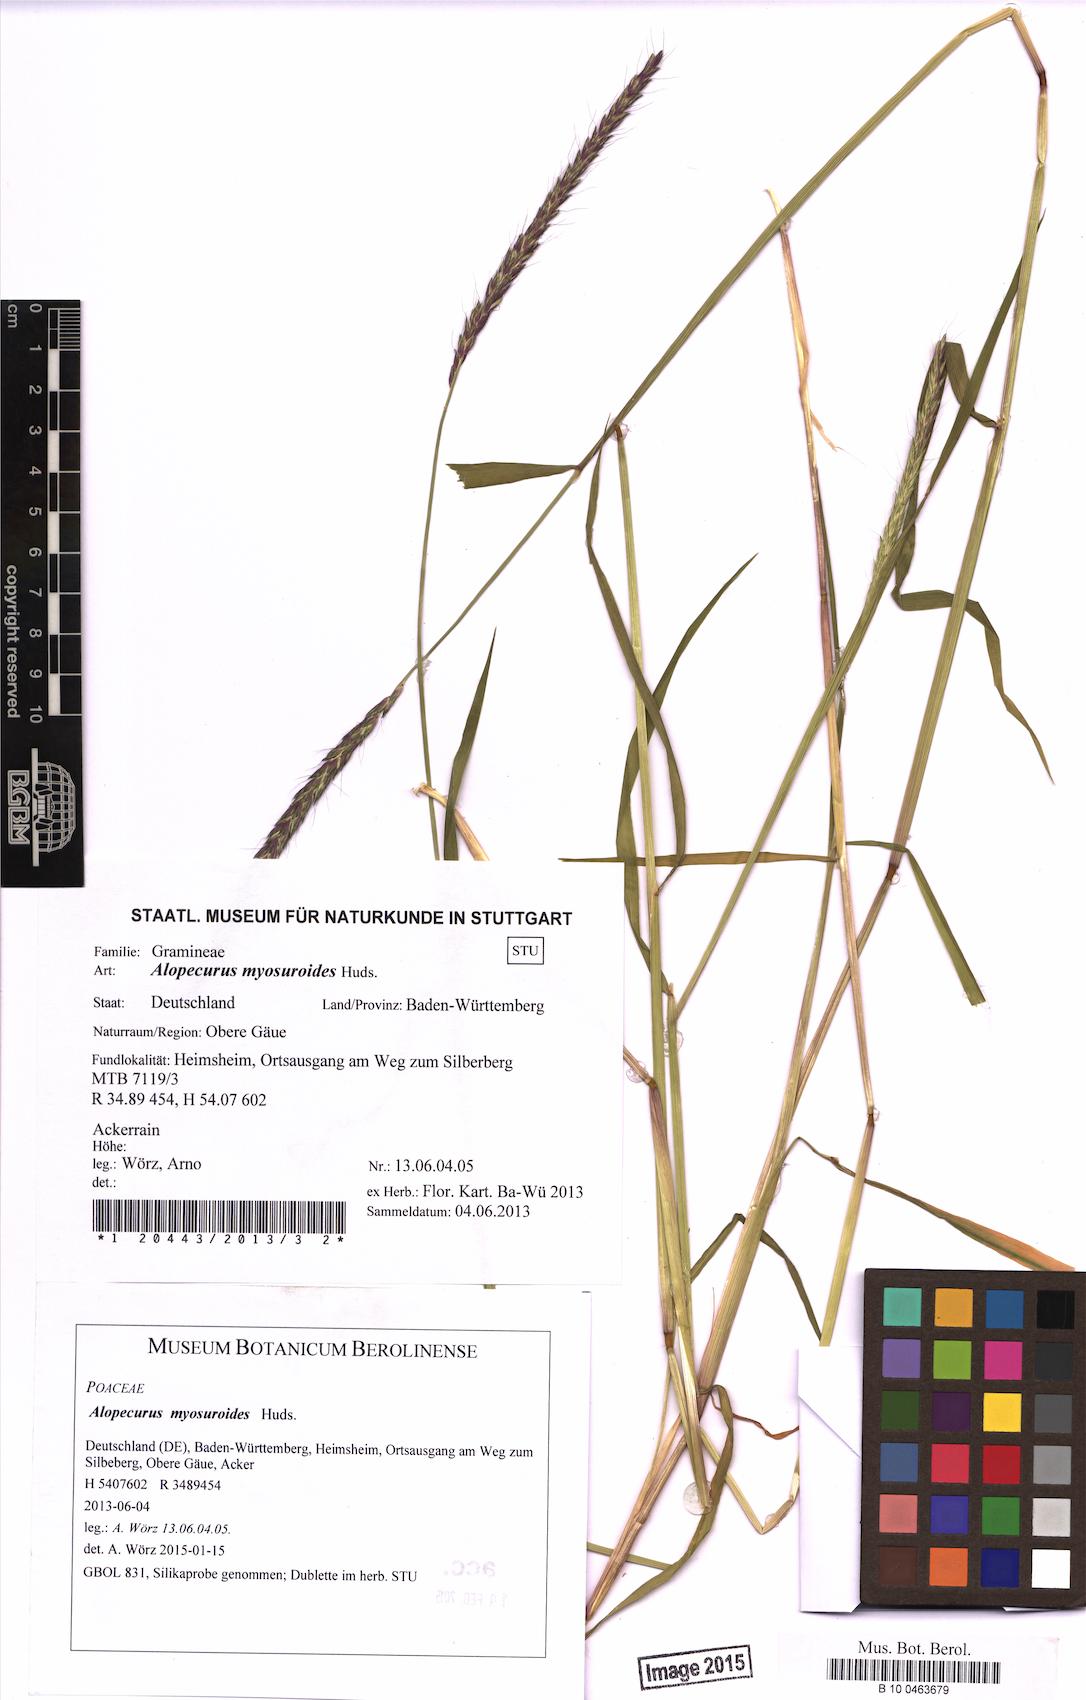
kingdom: Plantae
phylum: Tracheophyta
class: Liliopsida
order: Poales
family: Poaceae
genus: Alopecurus
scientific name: Alopecurus myosuroides
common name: Black-grass
